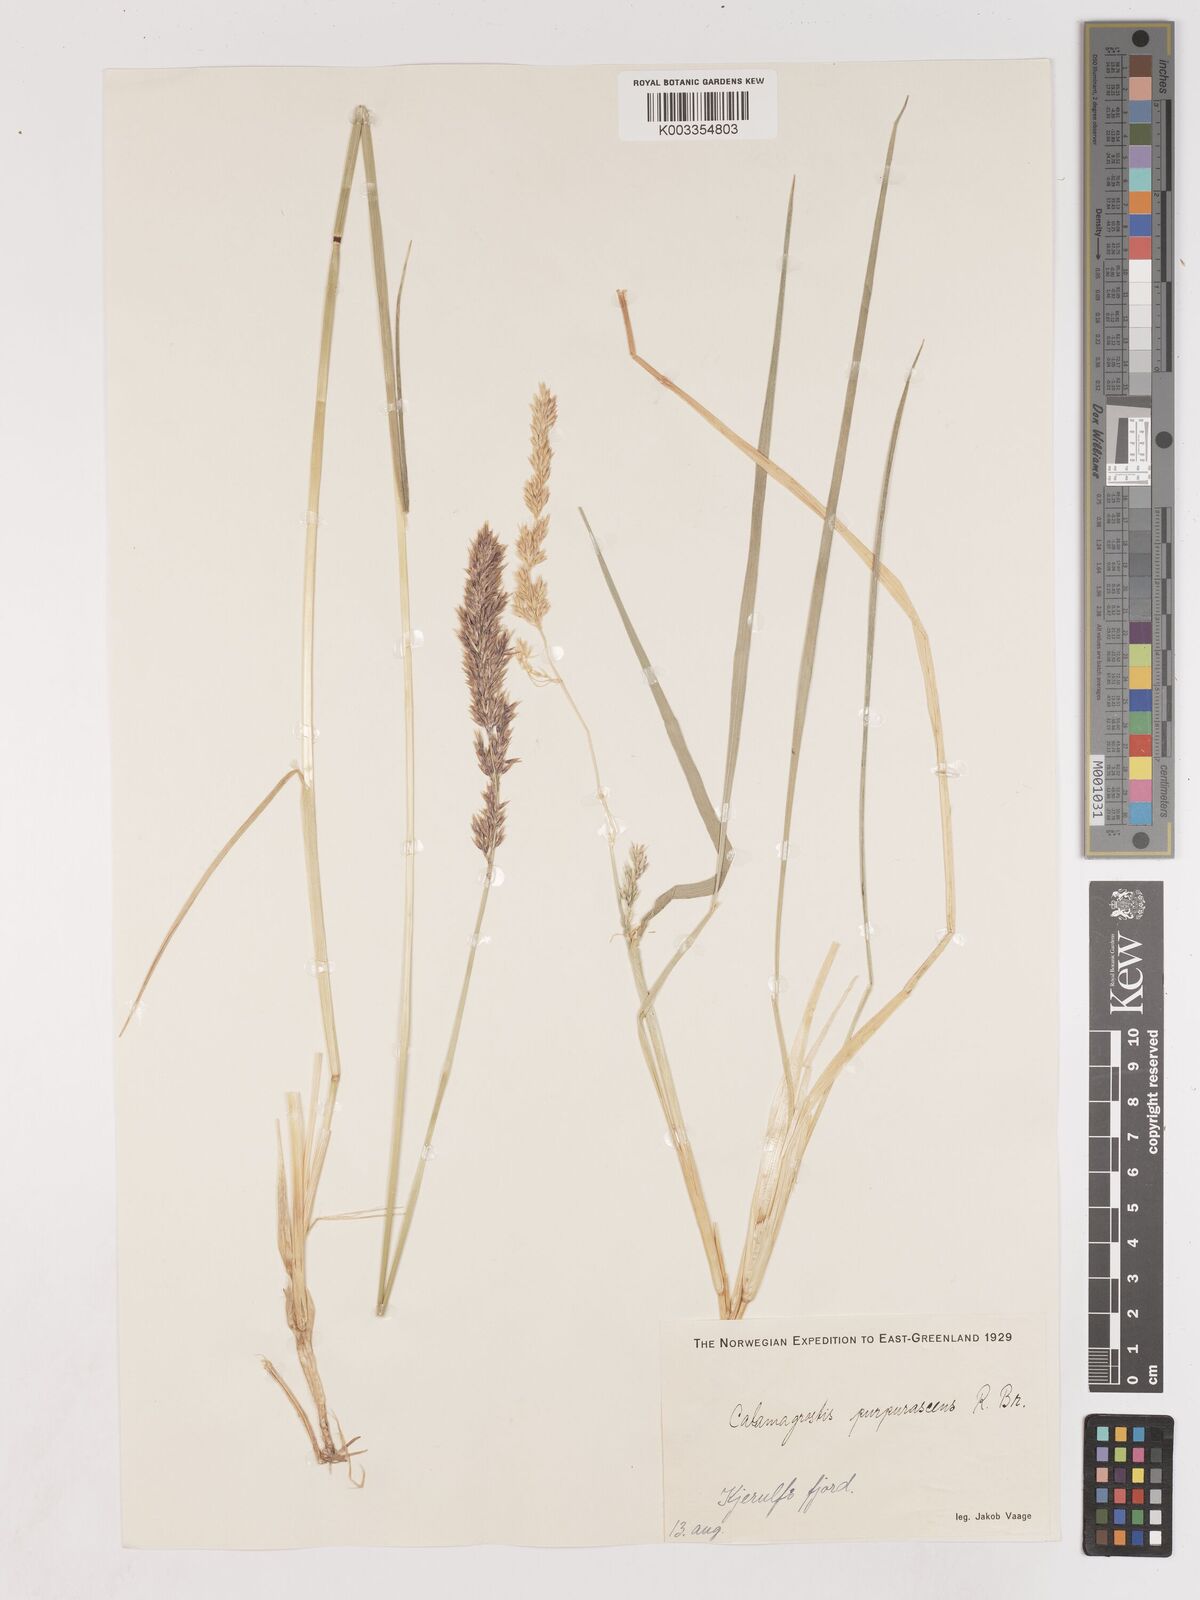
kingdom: Plantae
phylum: Tracheophyta
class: Liliopsida
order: Poales
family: Poaceae
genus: Calamagrostis
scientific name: Calamagrostis
